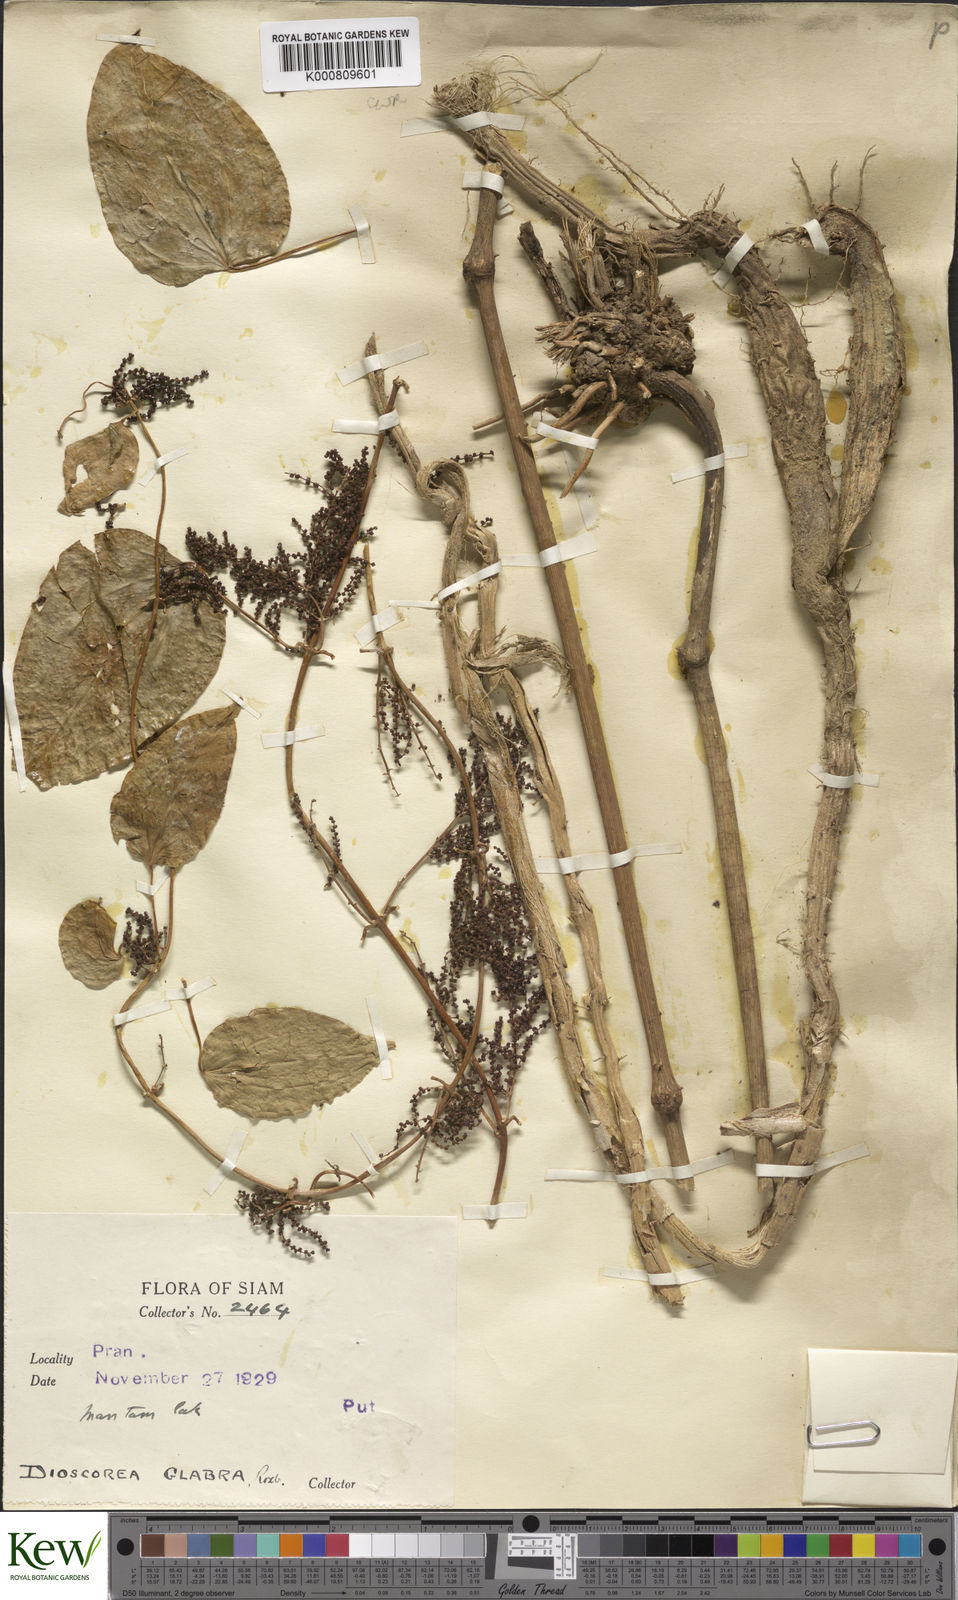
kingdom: Plantae
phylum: Tracheophyta
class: Liliopsida
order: Dioscoreales
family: Dioscoreaceae
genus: Dioscorea
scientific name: Dioscorea glabra
